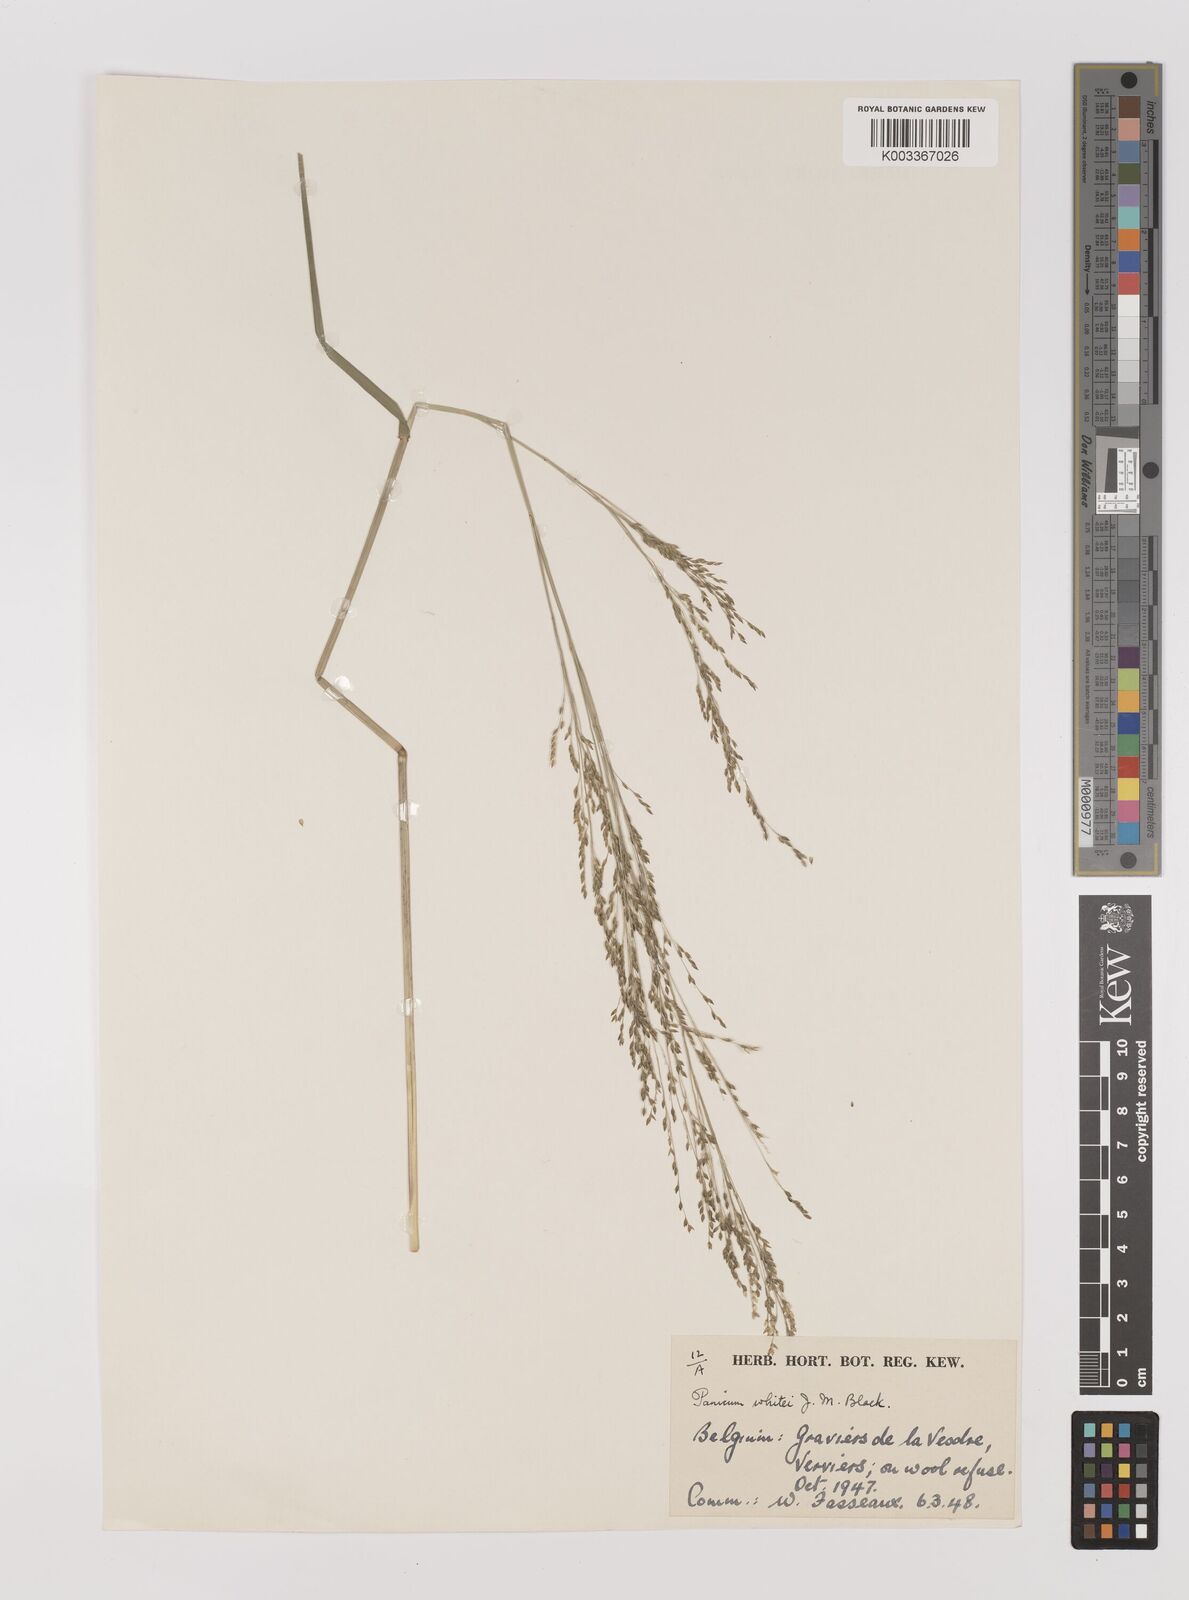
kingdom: Plantae
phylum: Tracheophyta
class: Liliopsida
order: Poales
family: Poaceae
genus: Panicum
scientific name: Panicum laevinode
